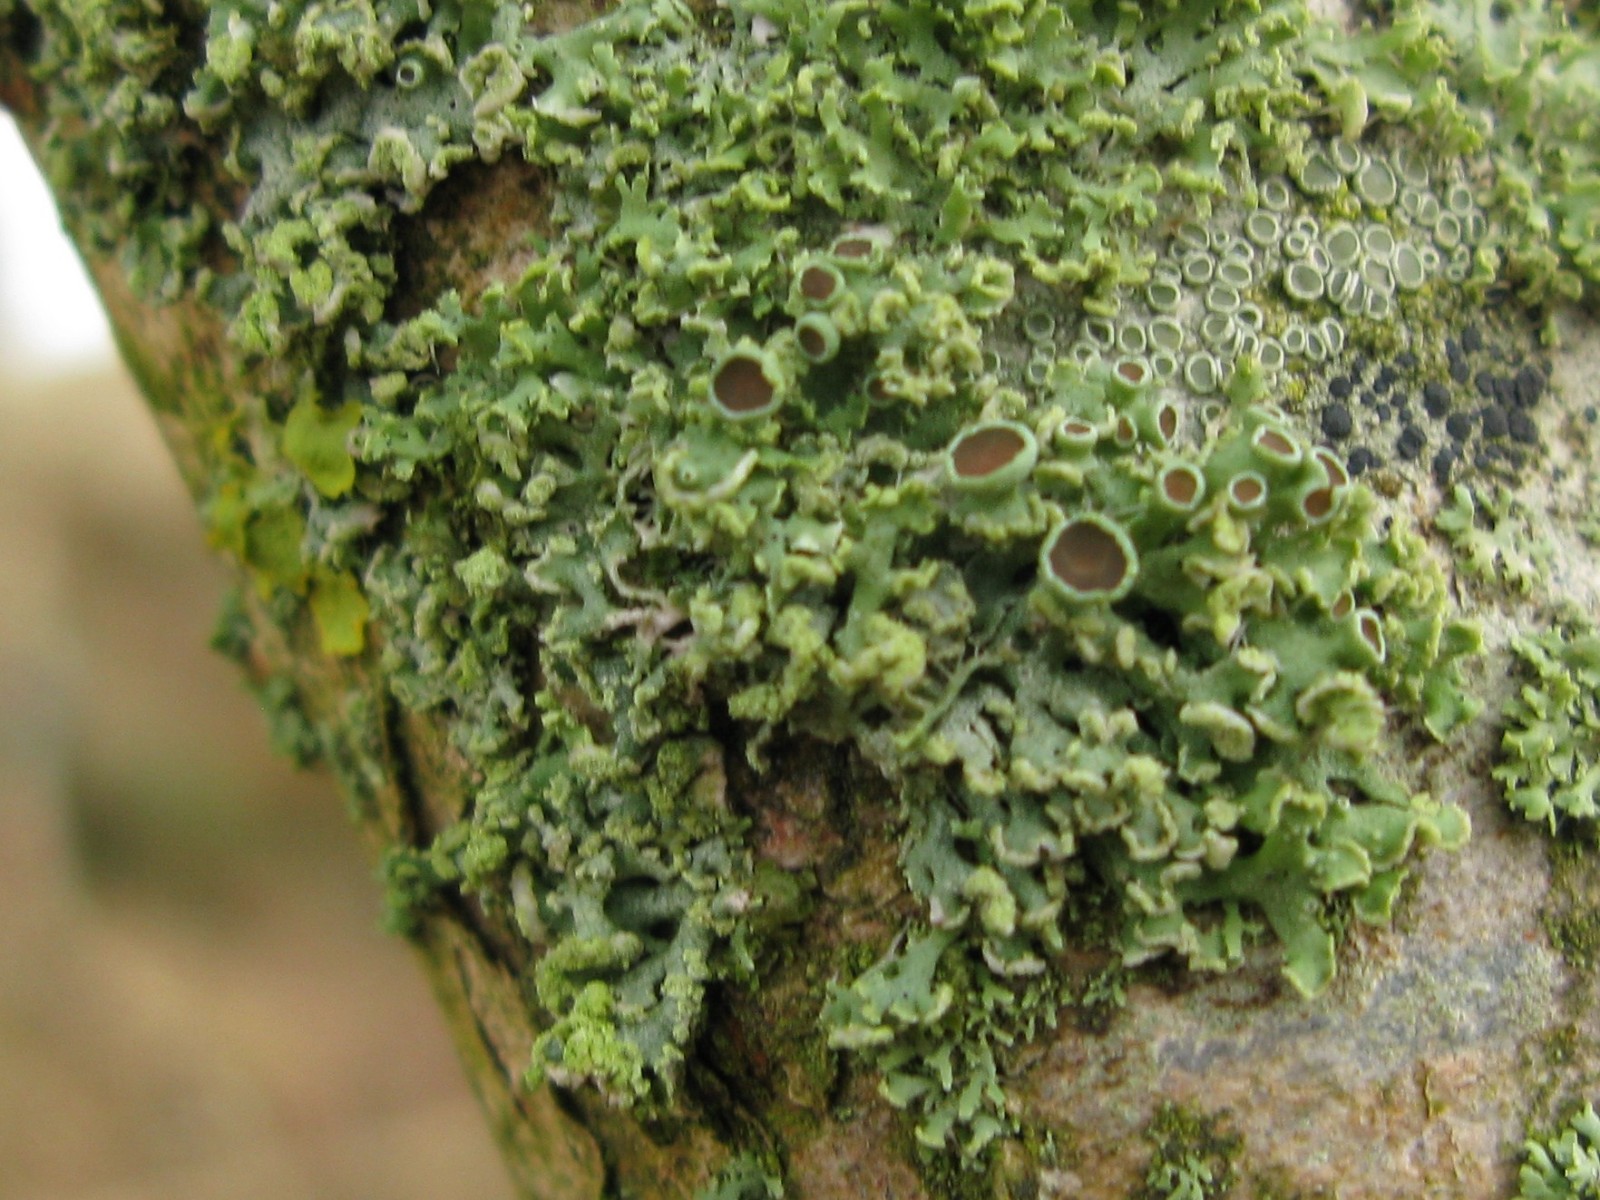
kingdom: Fungi
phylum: Ascomycota
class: Lecanoromycetes
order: Caliciales
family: Physciaceae
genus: Physcia
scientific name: Physcia tenella
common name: spæd rosetlav
